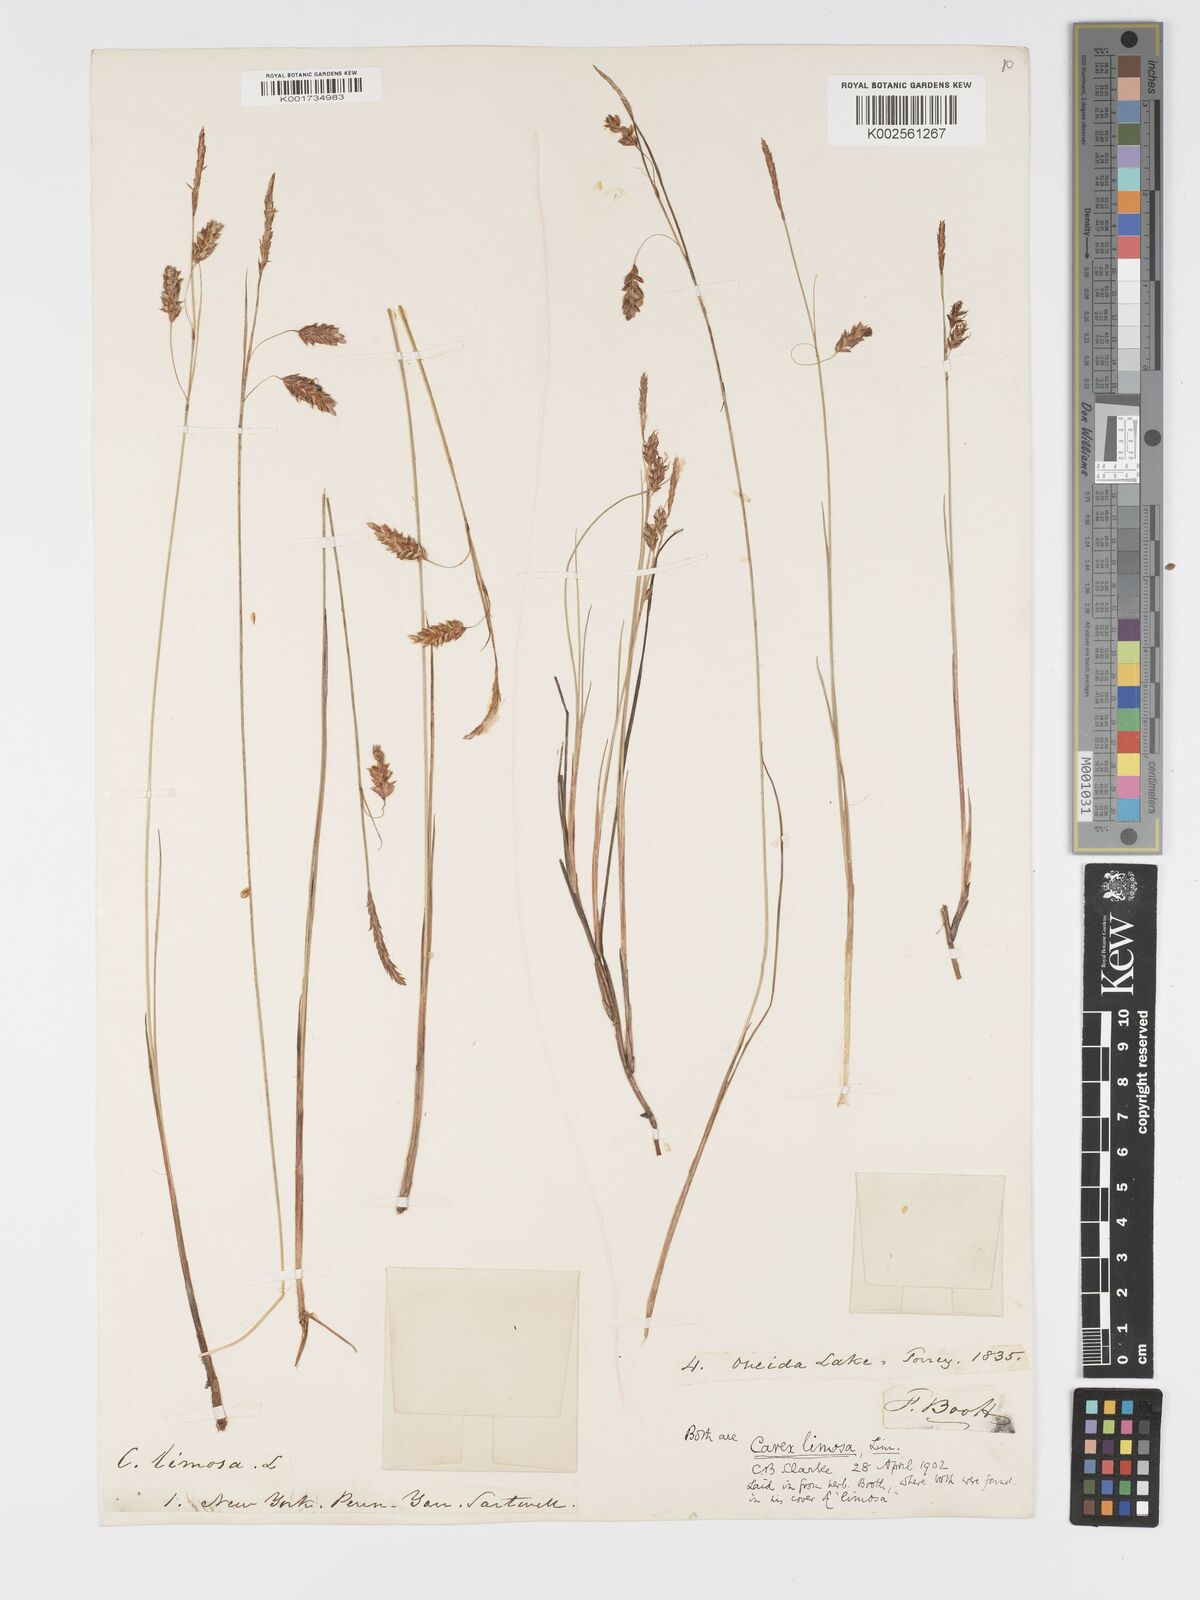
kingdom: Plantae
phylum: Tracheophyta
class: Liliopsida
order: Poales
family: Cyperaceae
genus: Carex
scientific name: Carex limosa
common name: Bog sedge
